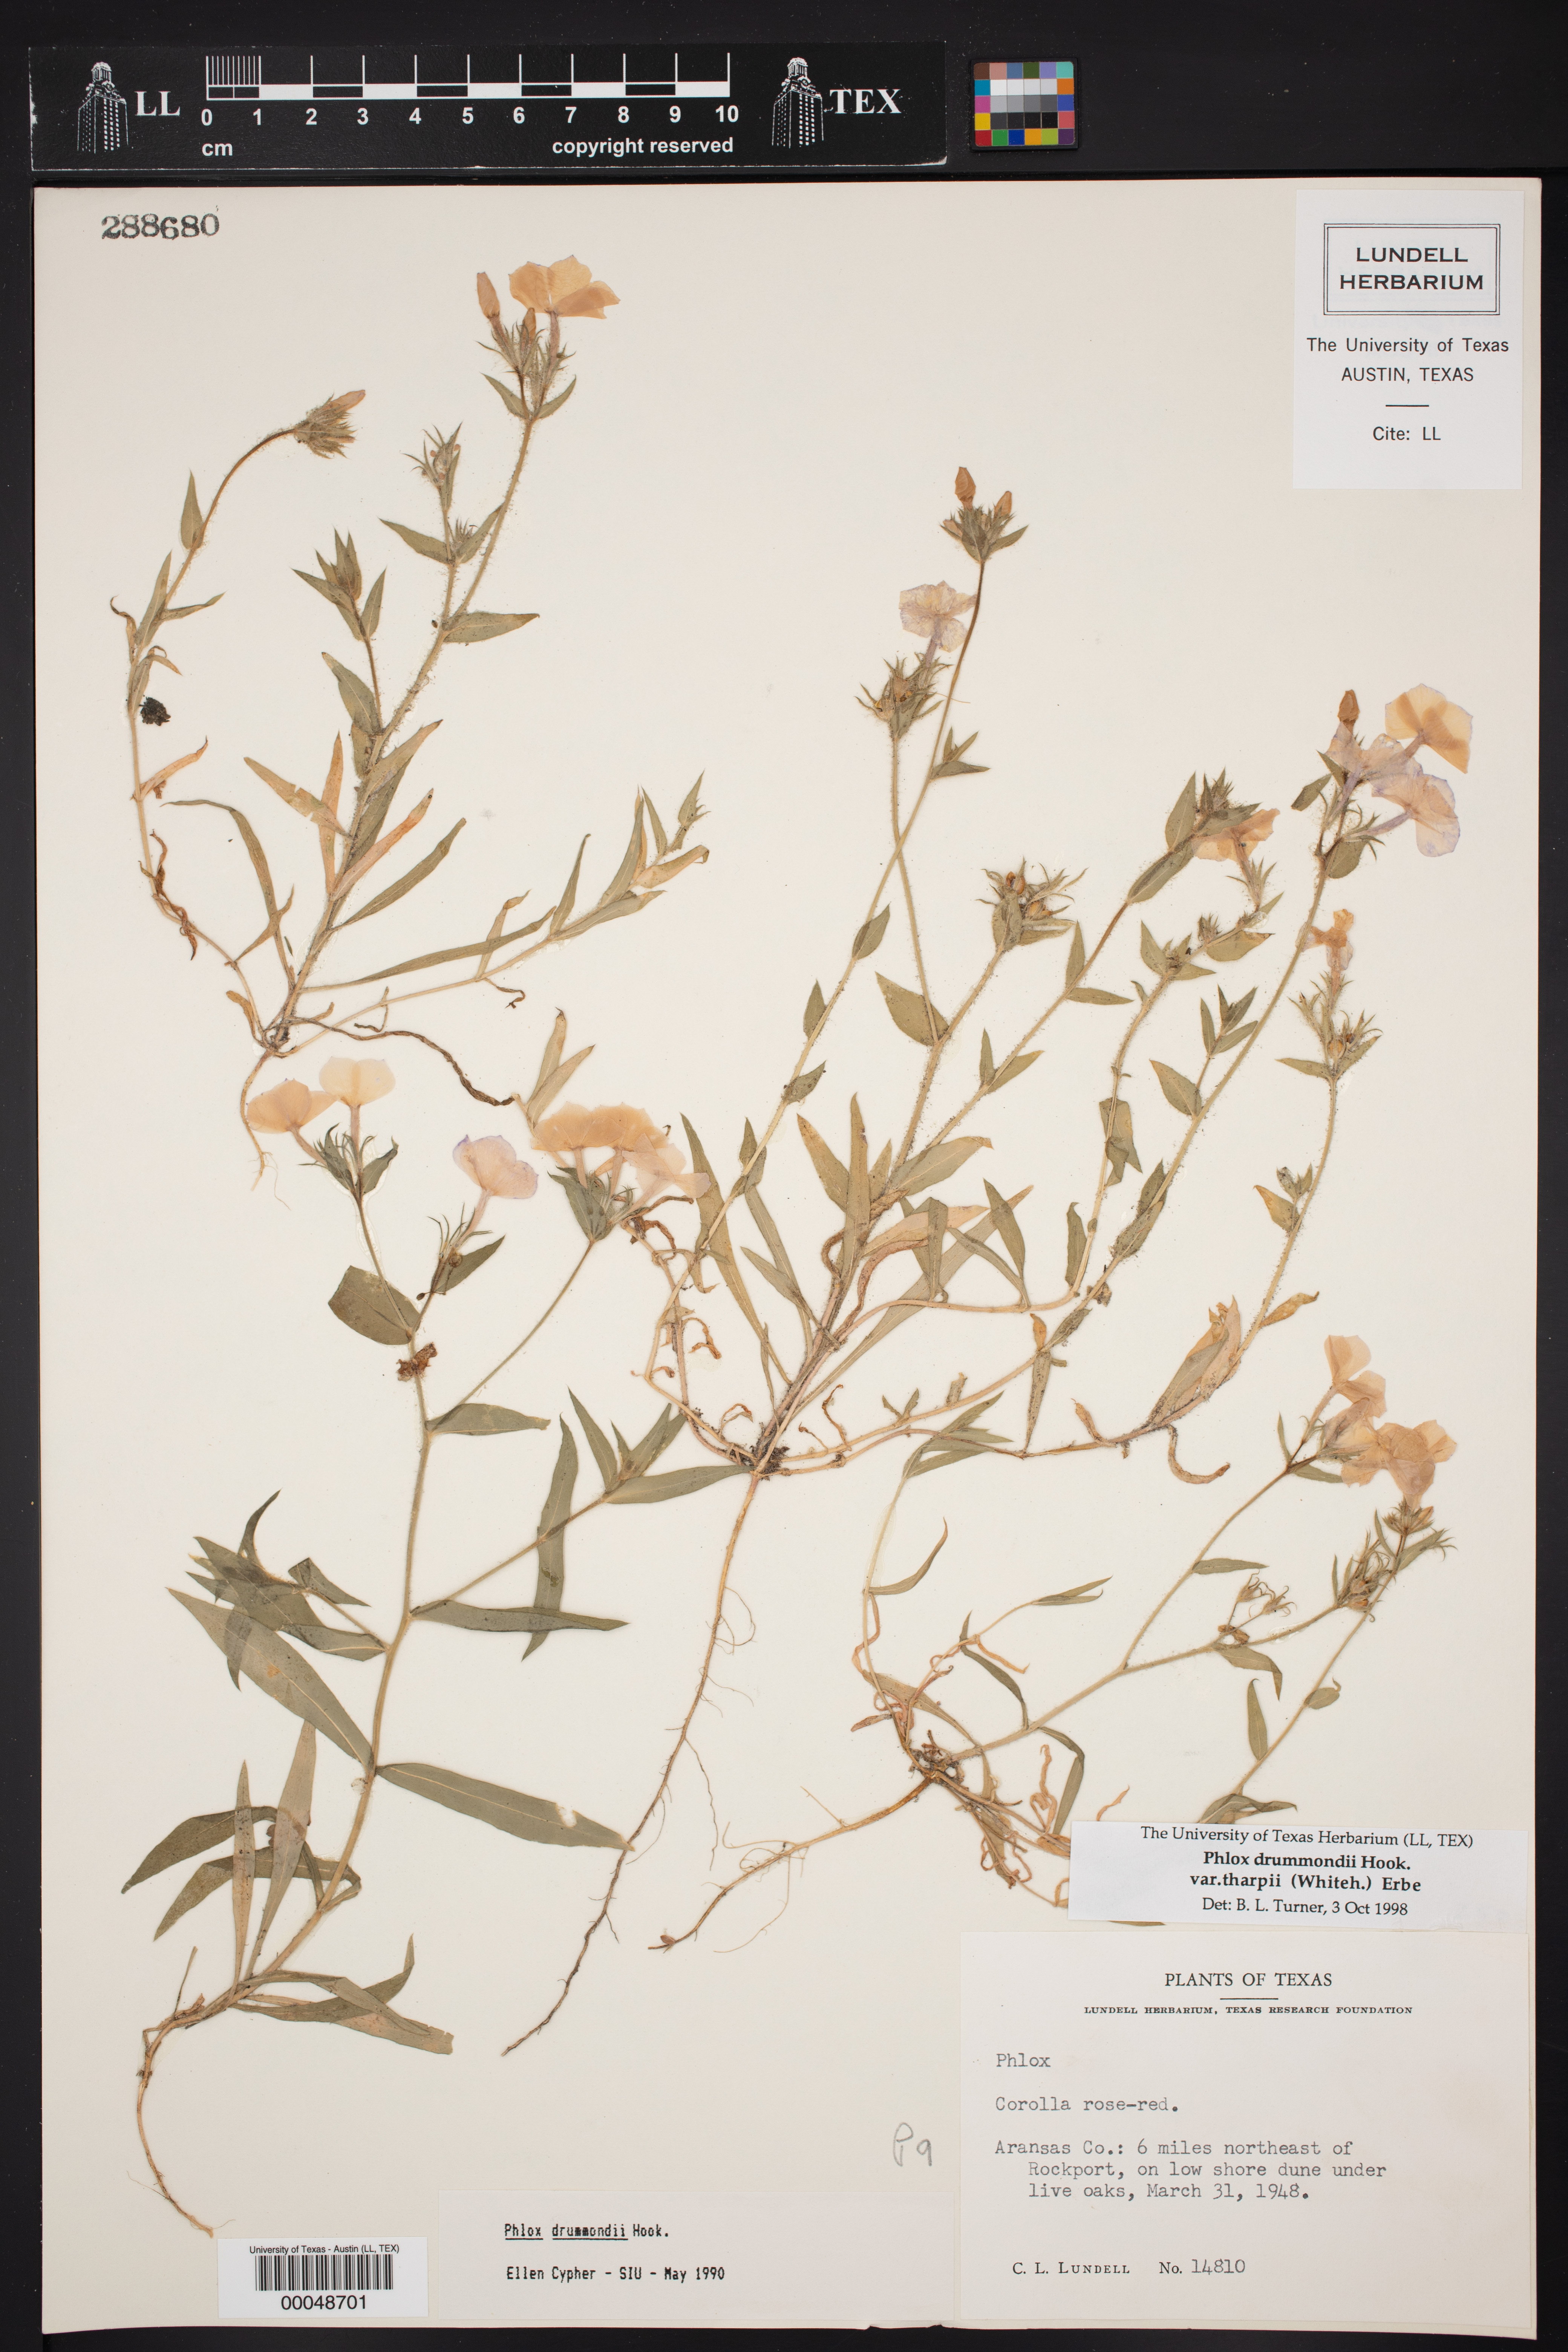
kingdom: Plantae
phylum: Tracheophyta
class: Magnoliopsida
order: Ericales
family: Polemoniaceae
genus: Phlox
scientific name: Phlox drummondii
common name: Drummond's phlox
